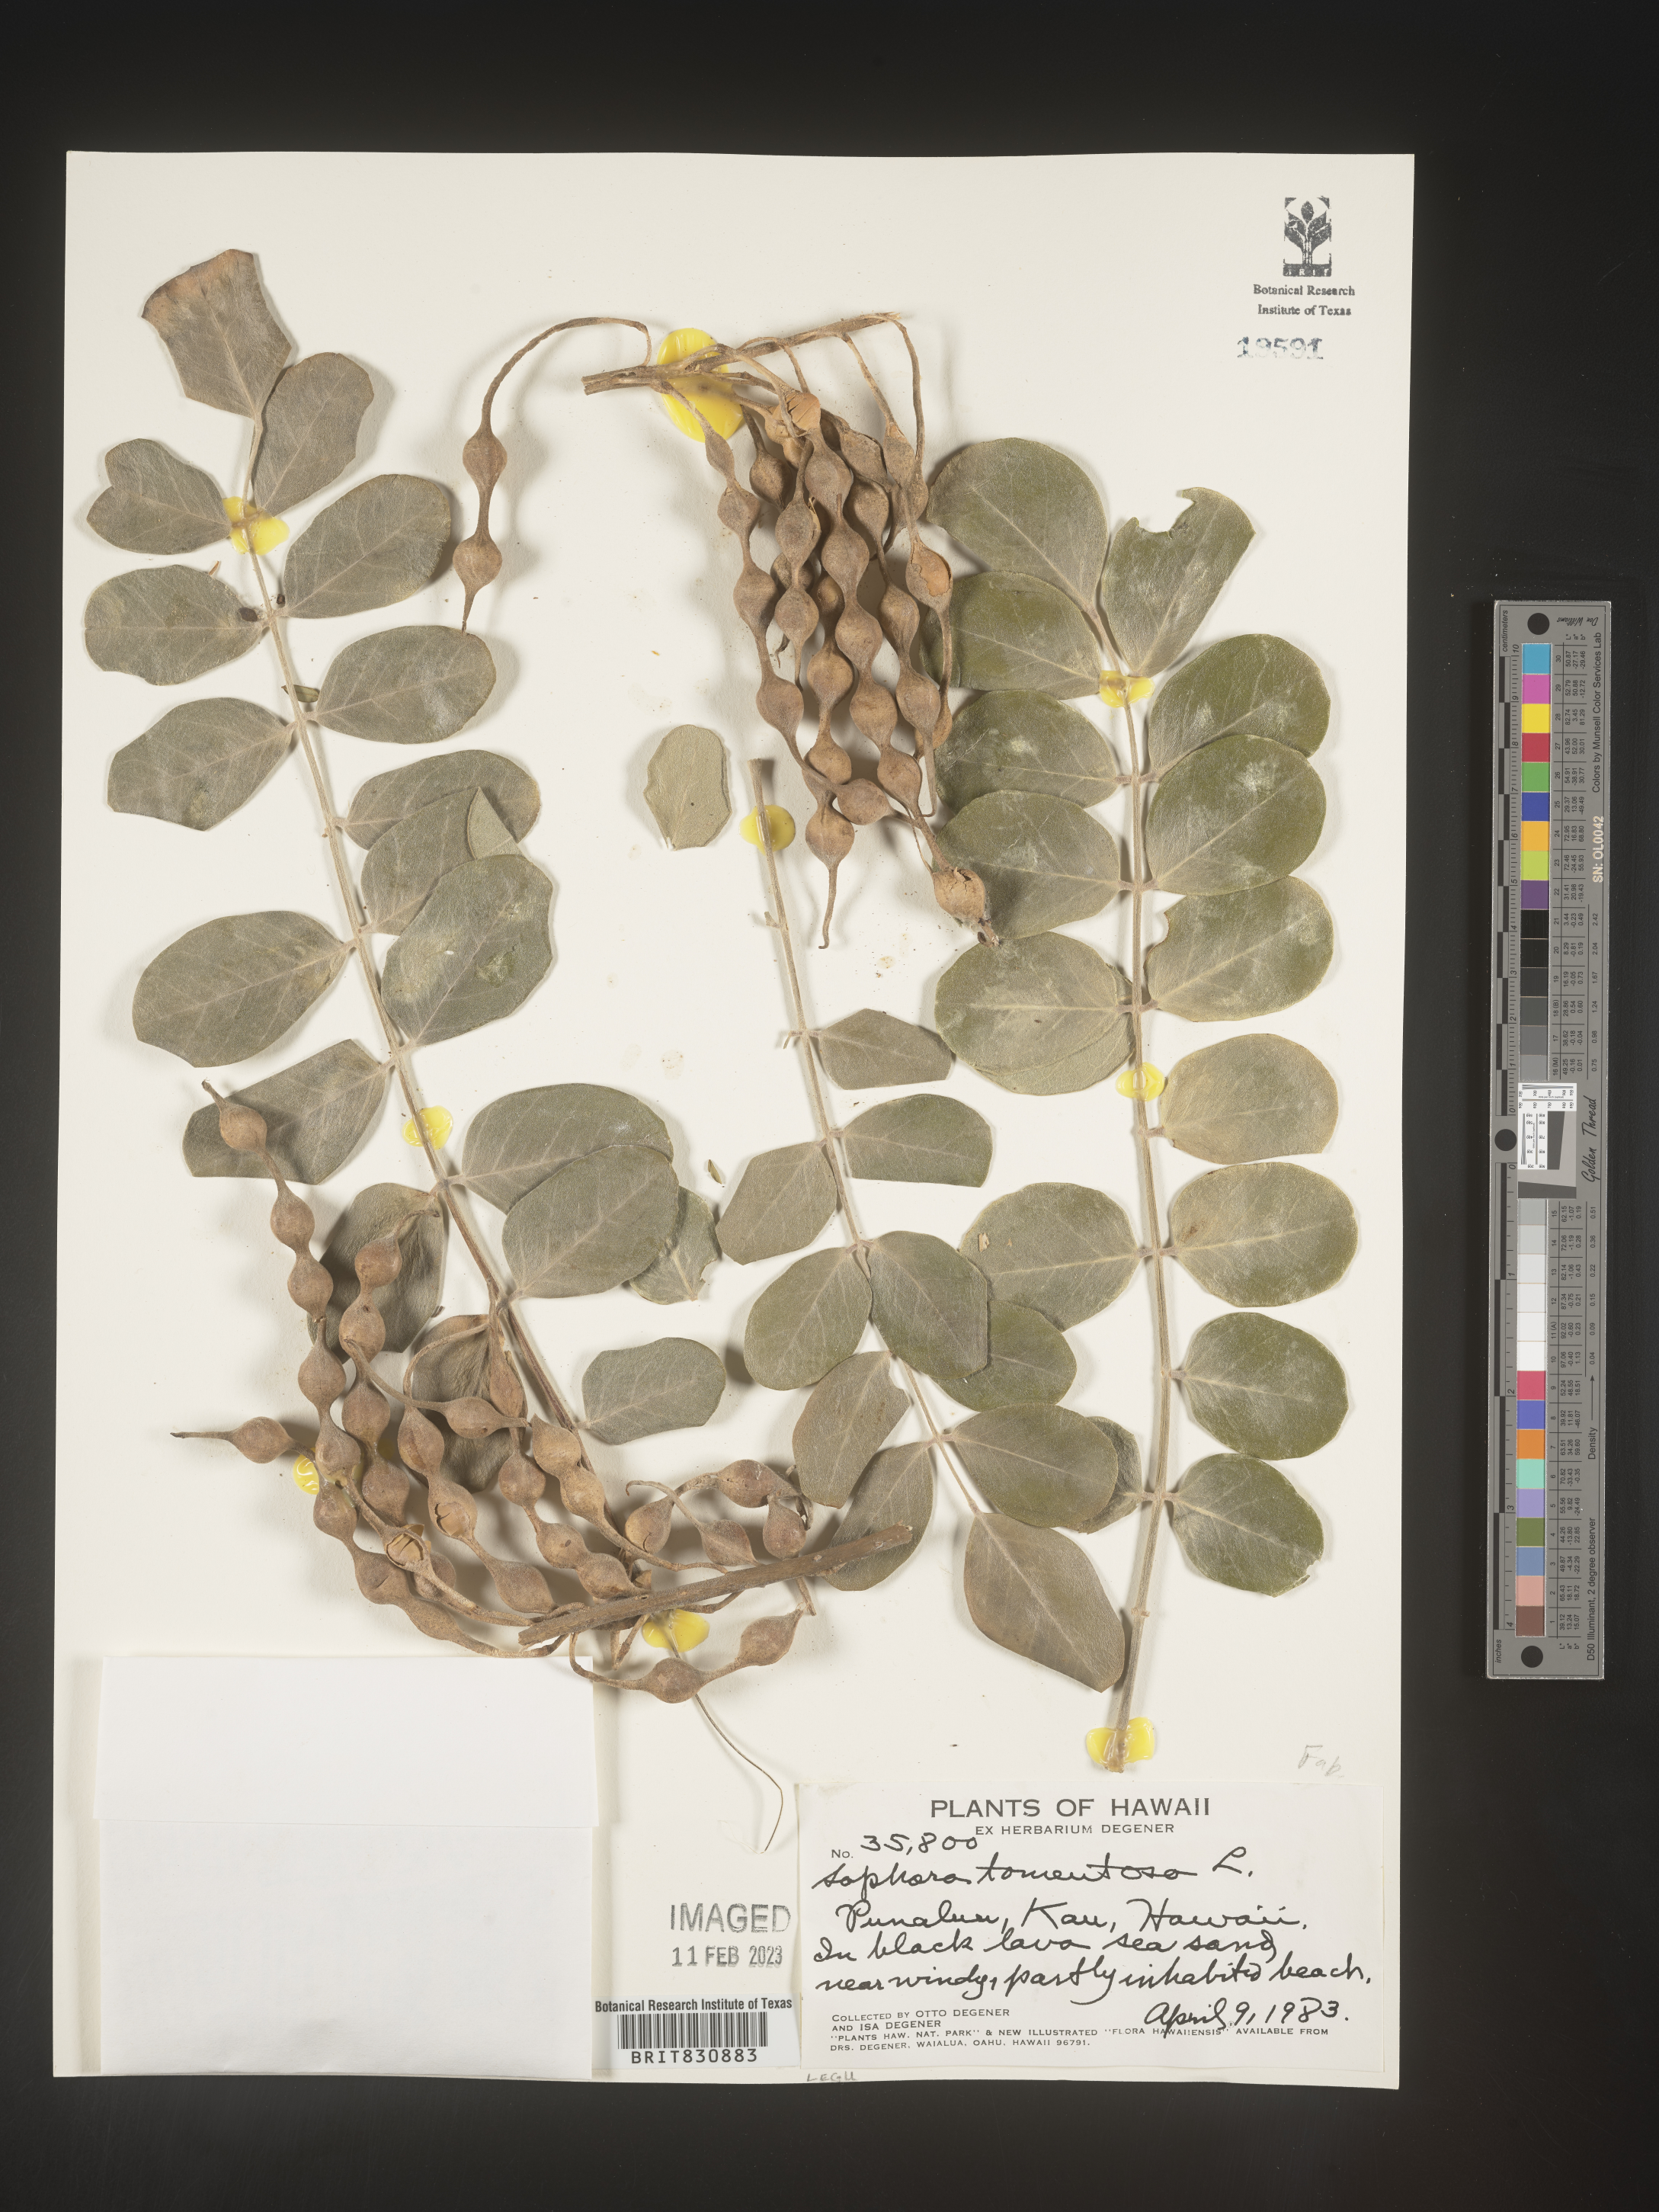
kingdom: Plantae
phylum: Tracheophyta
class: Magnoliopsida
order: Fabales
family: Fabaceae
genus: Sophora
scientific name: Sophora
